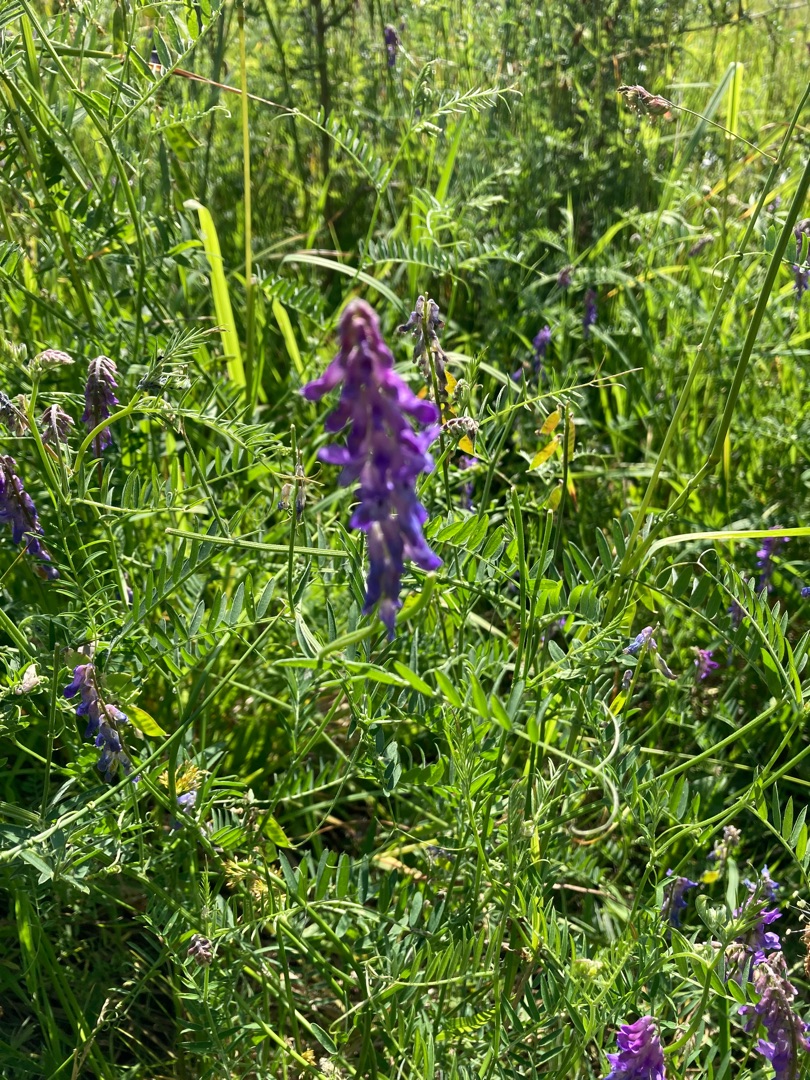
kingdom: Plantae
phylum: Tracheophyta
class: Magnoliopsida
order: Fabales
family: Fabaceae
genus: Vicia
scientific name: Vicia cracca
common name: Muse-vikke
